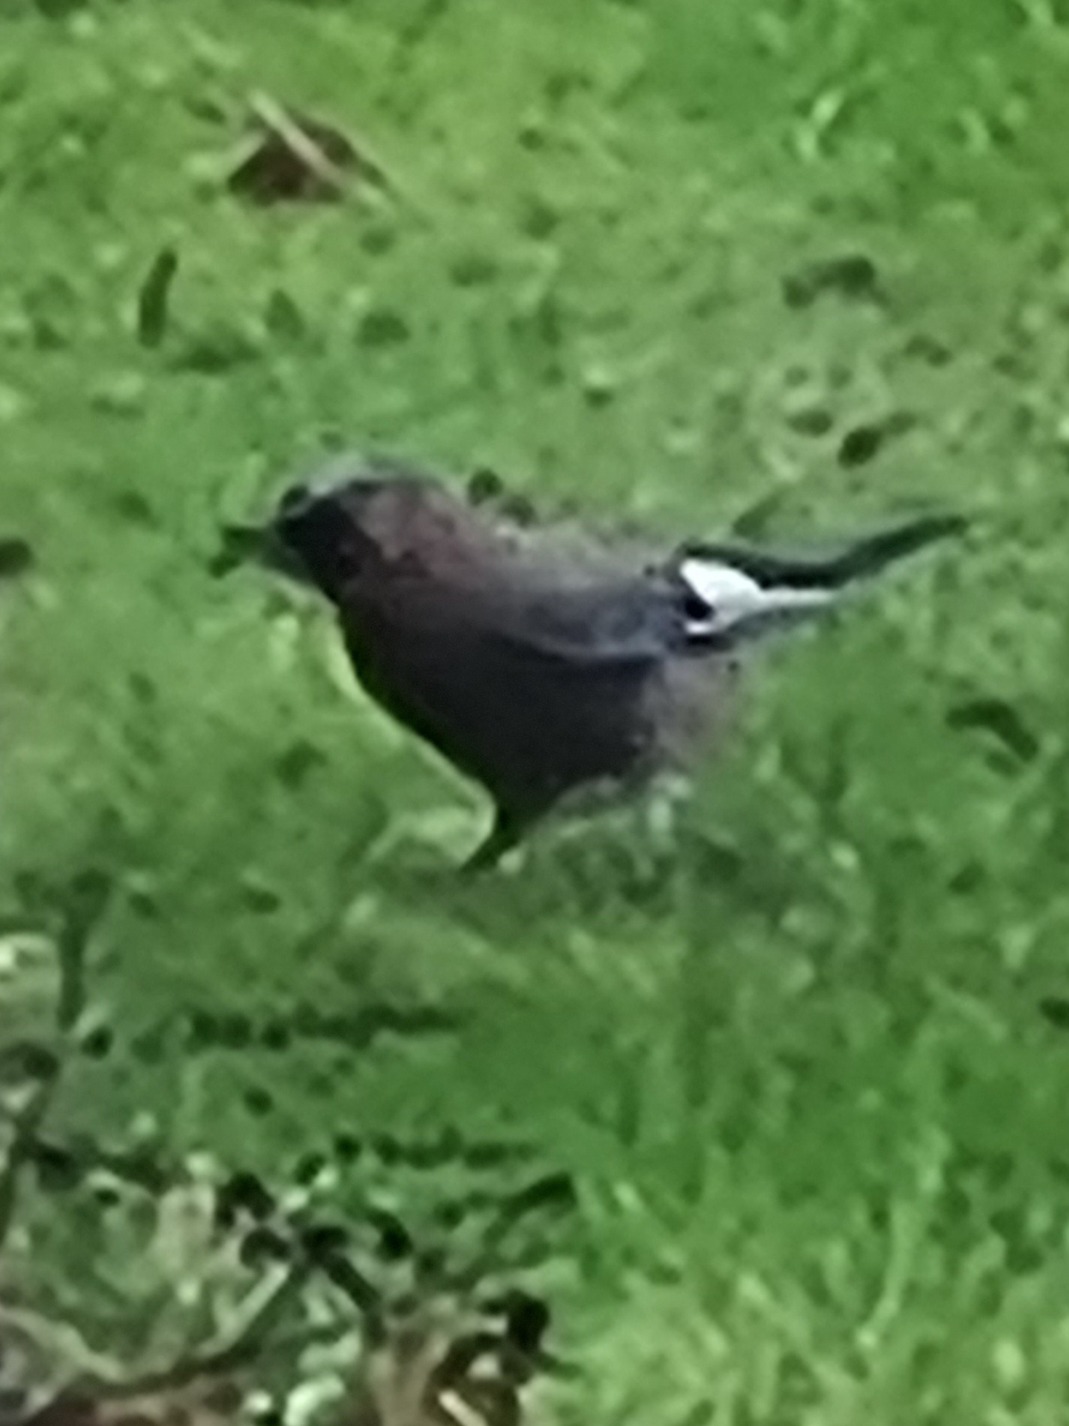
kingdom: Animalia
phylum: Chordata
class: Aves
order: Passeriformes
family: Corvidae
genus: Garrulus
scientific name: Garrulus glandarius
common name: Skovskade
